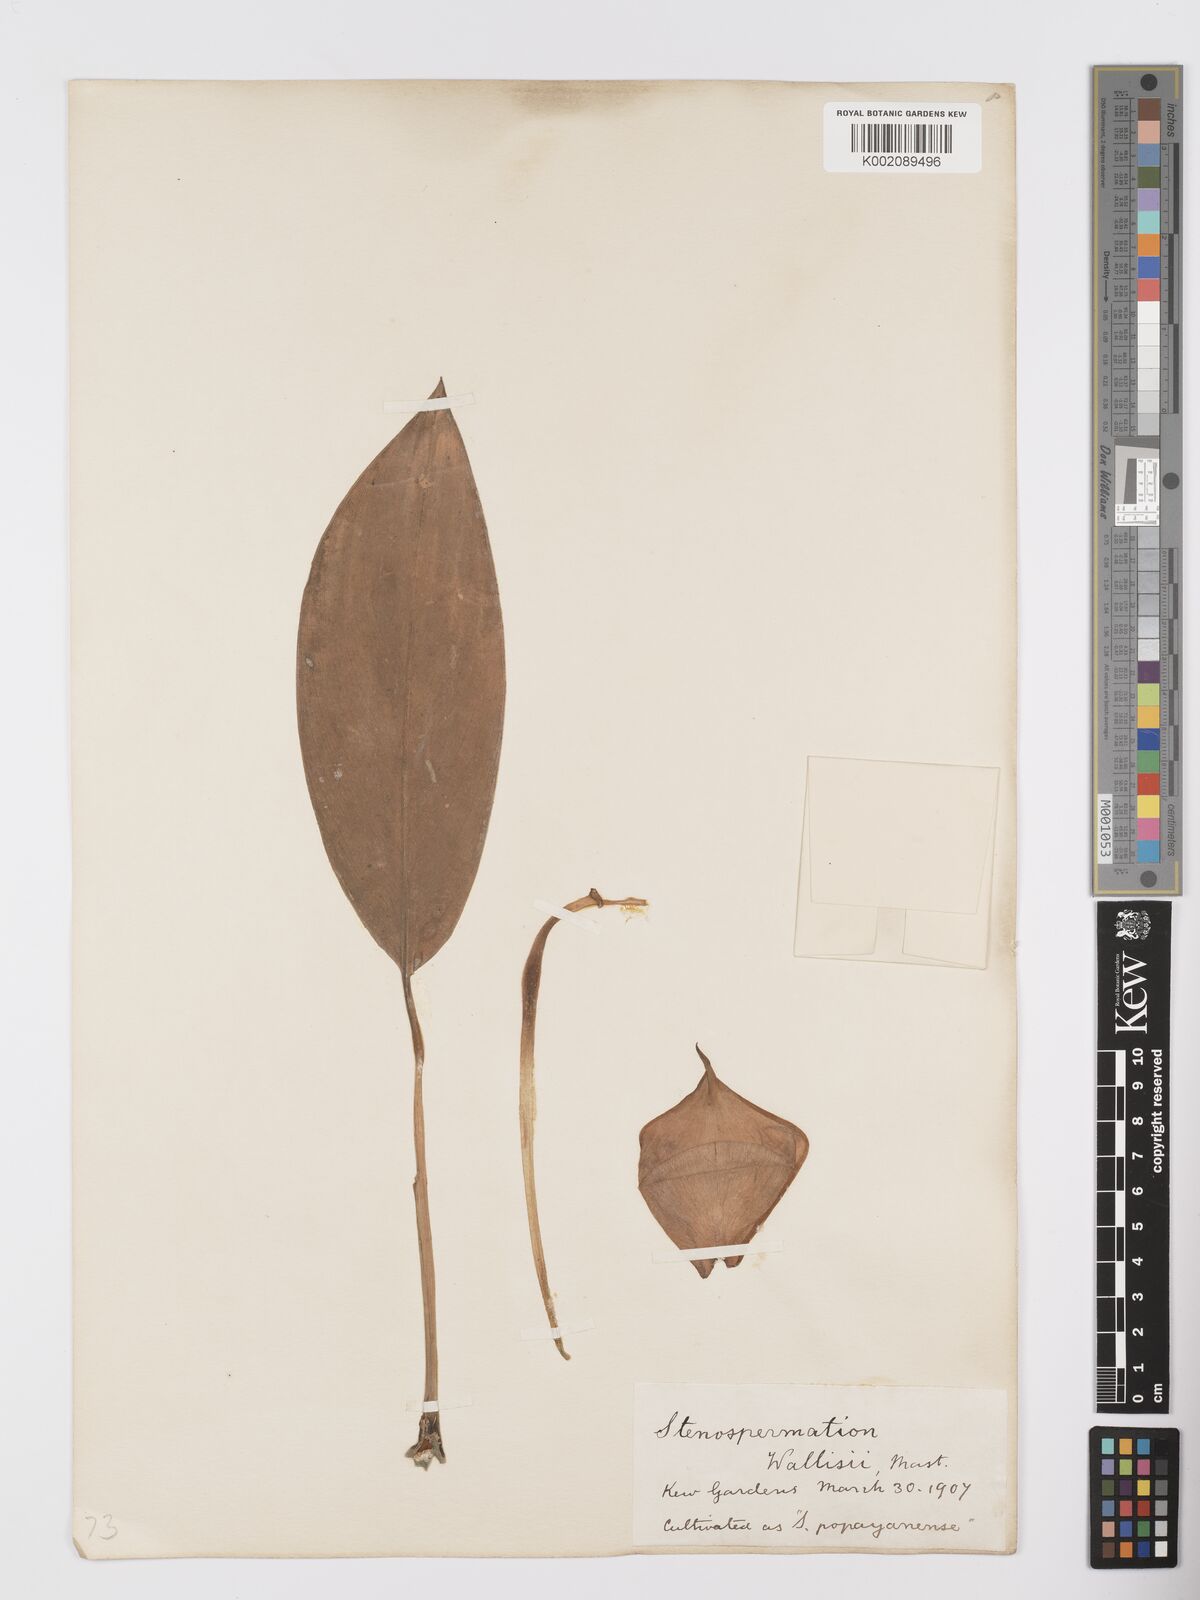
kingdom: Plantae
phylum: Tracheophyta
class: Liliopsida
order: Alismatales
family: Araceae
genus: Stenospermation
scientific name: Stenospermation wallisii
